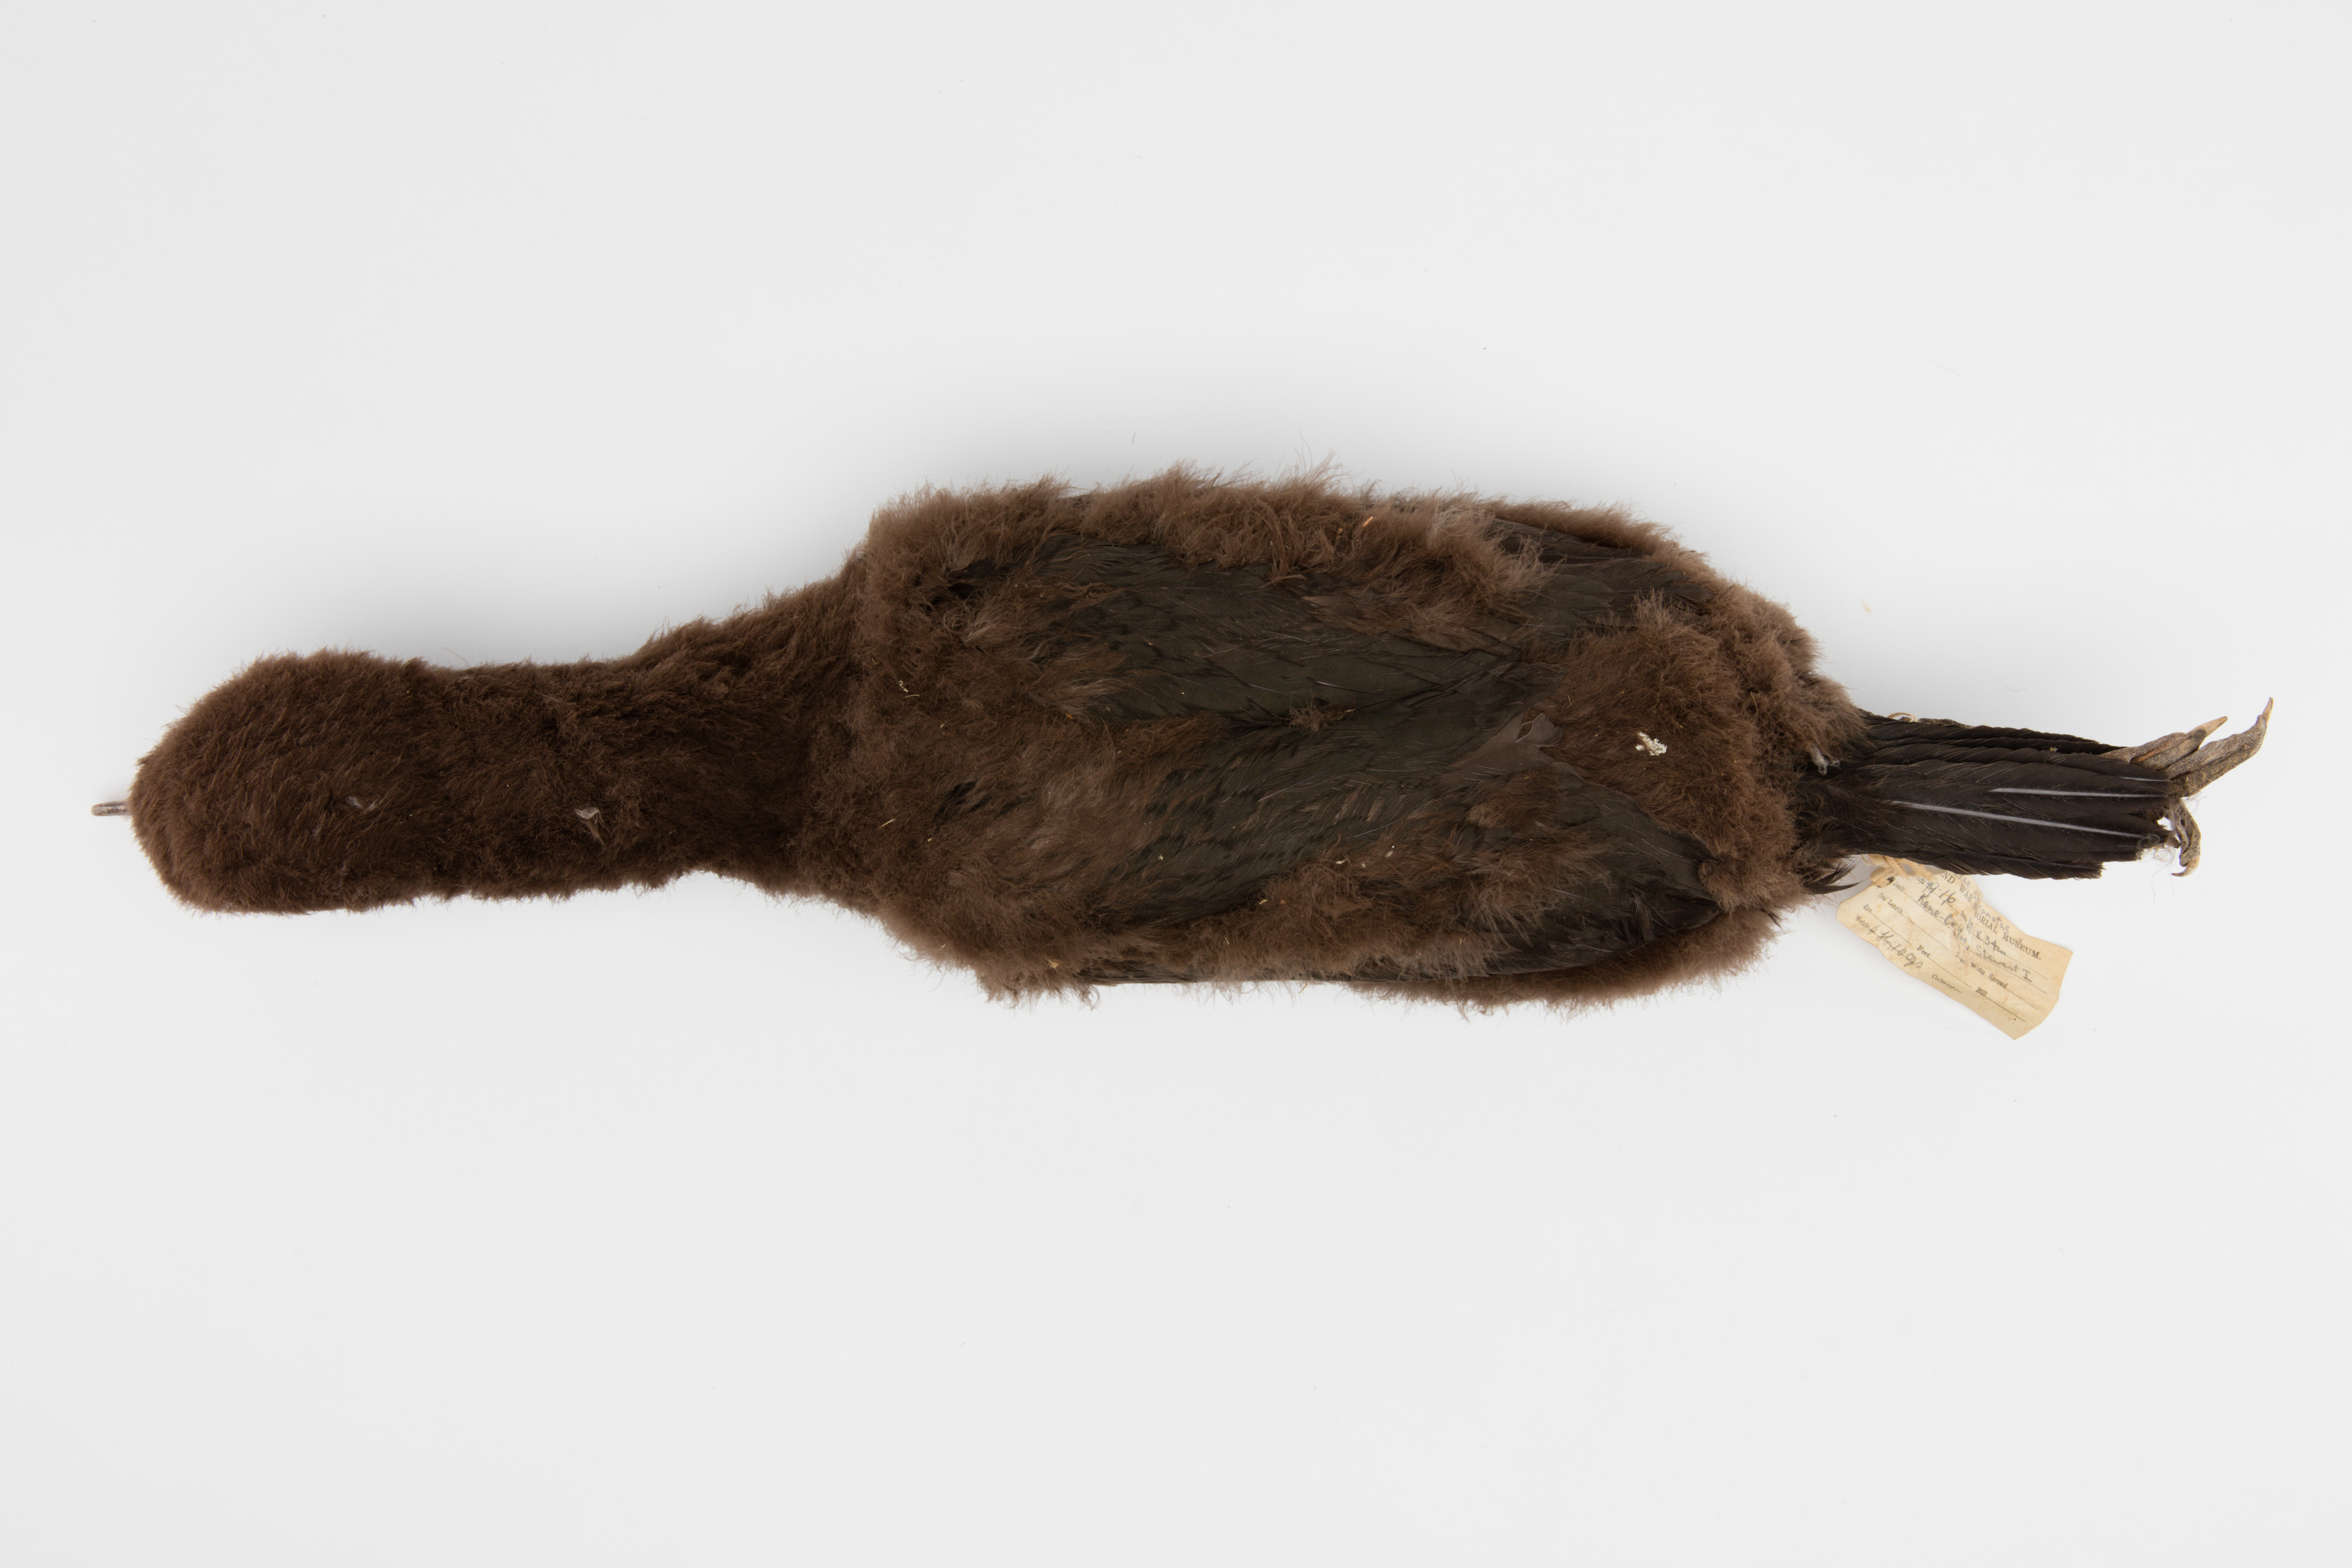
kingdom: Animalia
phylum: Chordata
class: Aves
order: Suliformes
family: Phalacrocoracidae
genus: Leucocarbo
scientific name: Leucocarbo chalconotus
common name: Stewart shag
